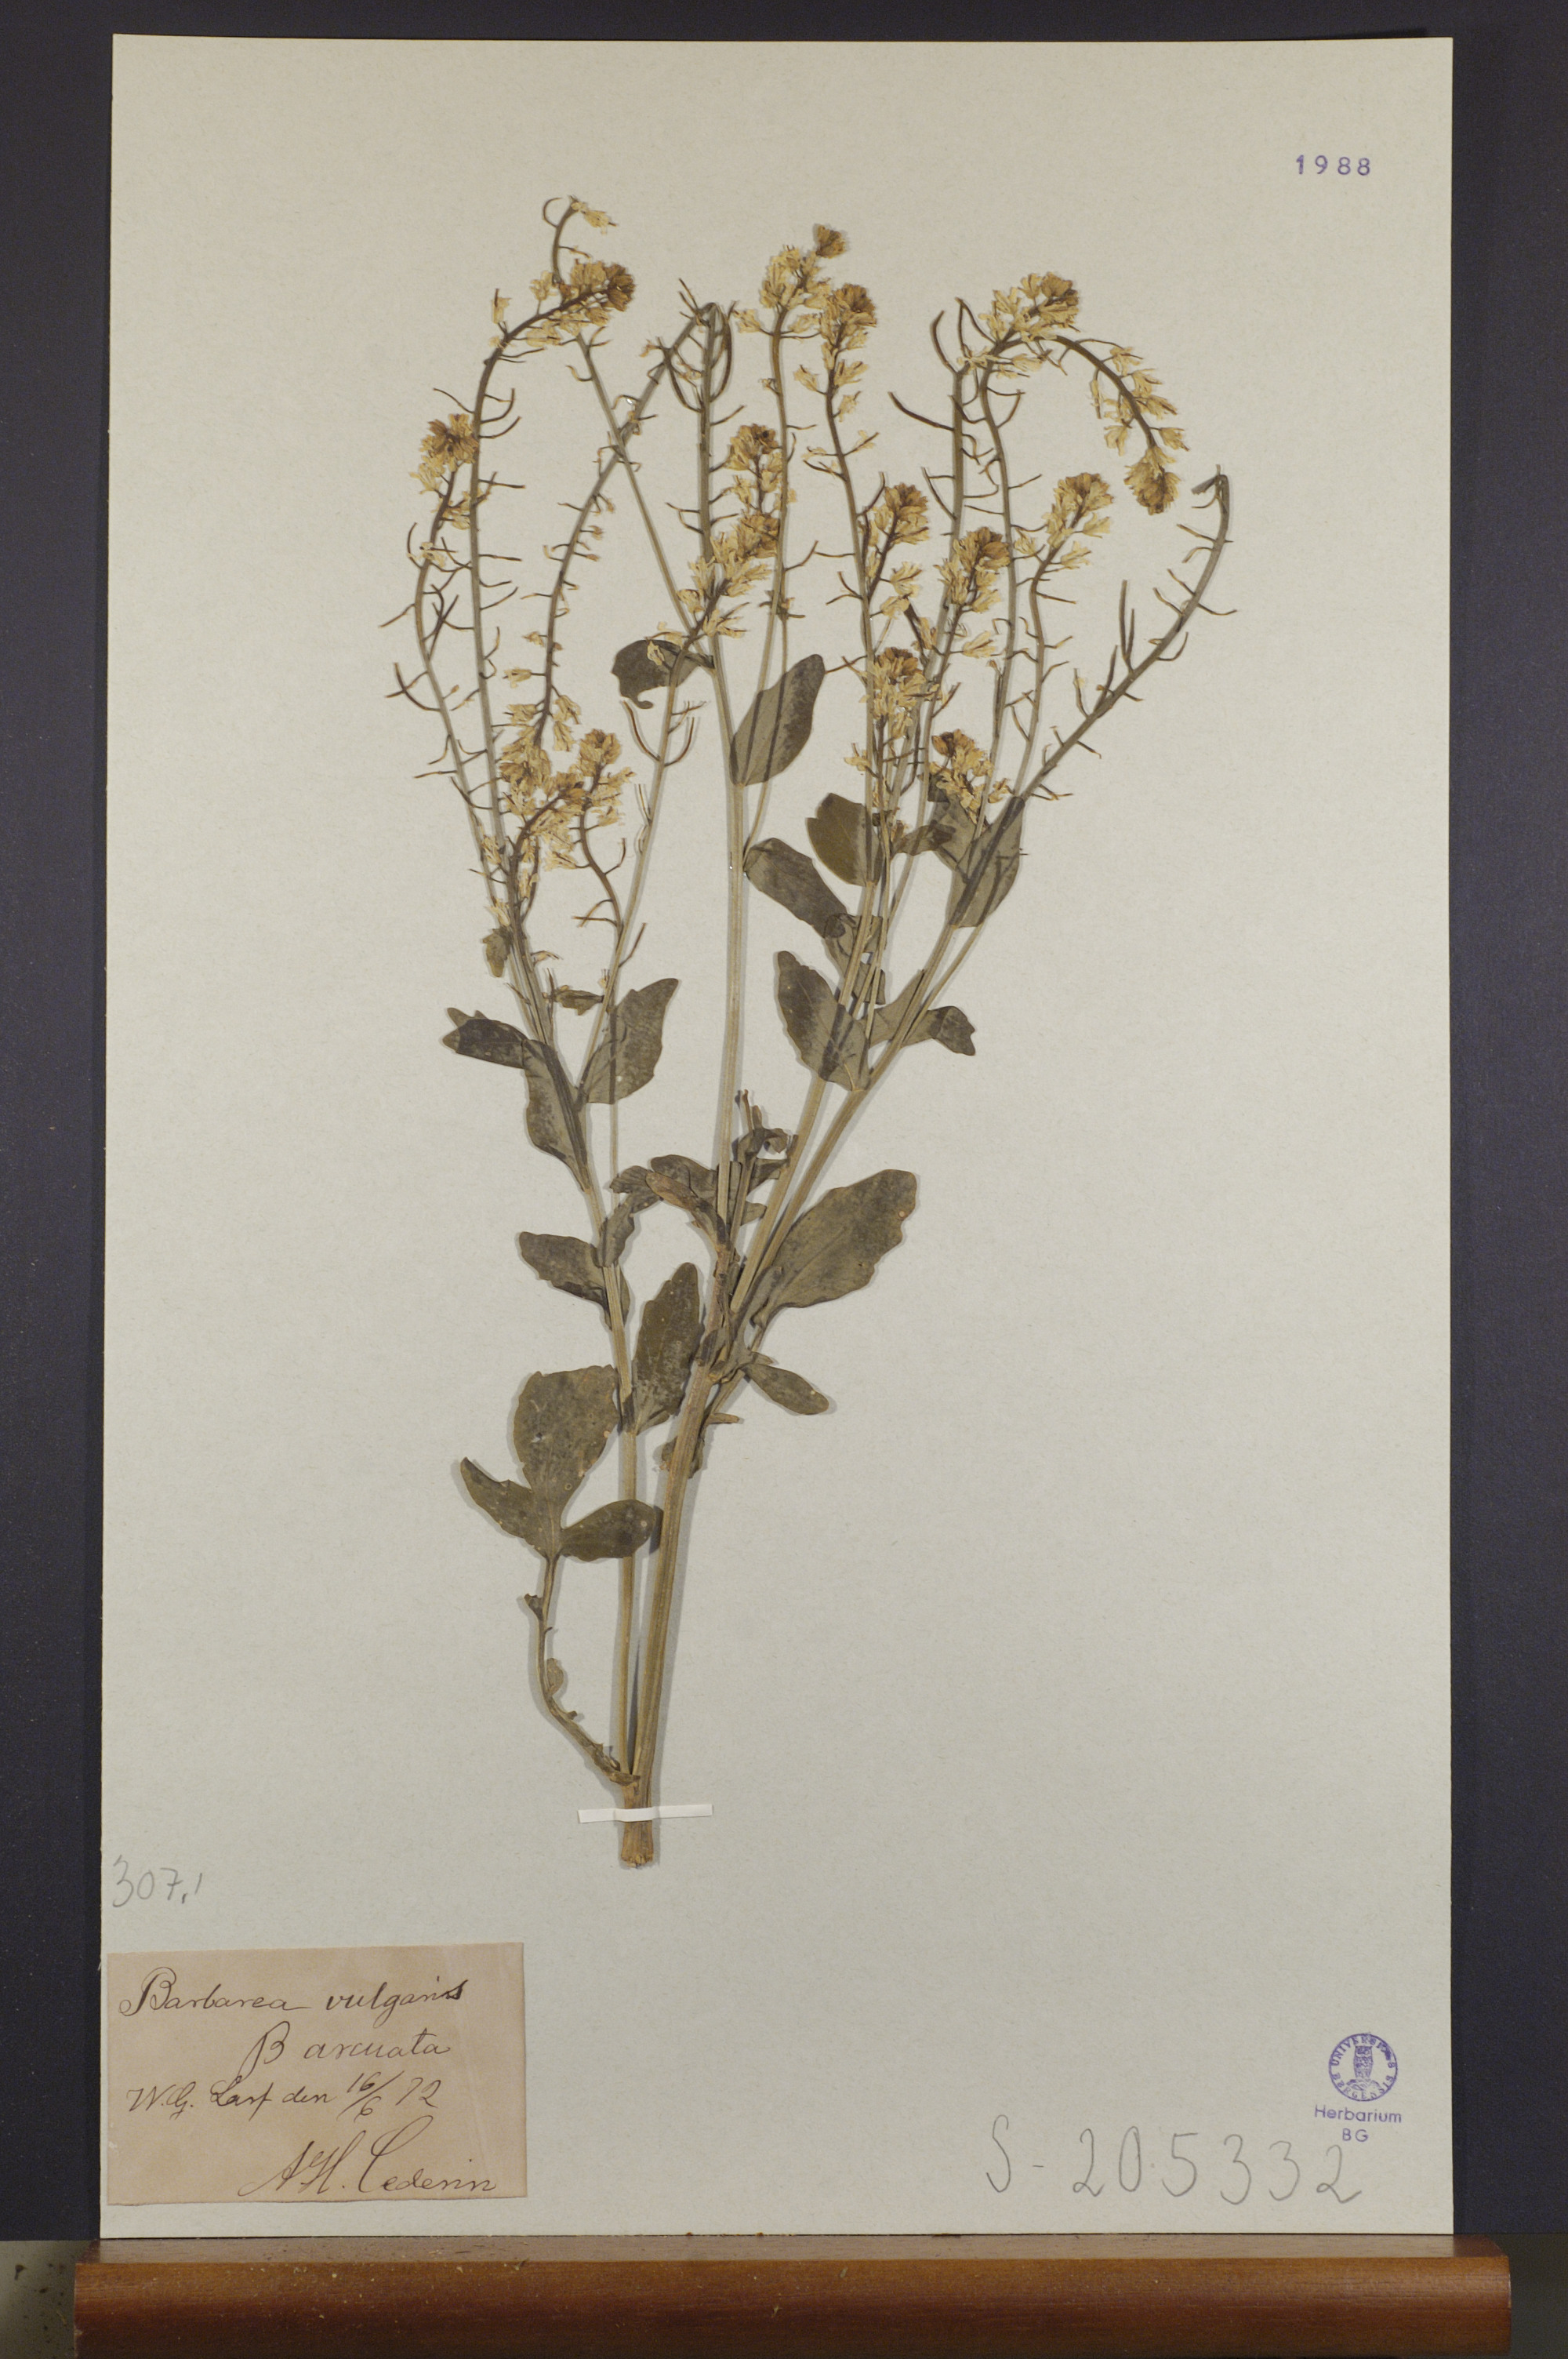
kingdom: Plantae
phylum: Tracheophyta
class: Magnoliopsida
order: Brassicales
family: Brassicaceae
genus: Barbarea
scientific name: Barbarea vulgaris
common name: Cressy-greens
